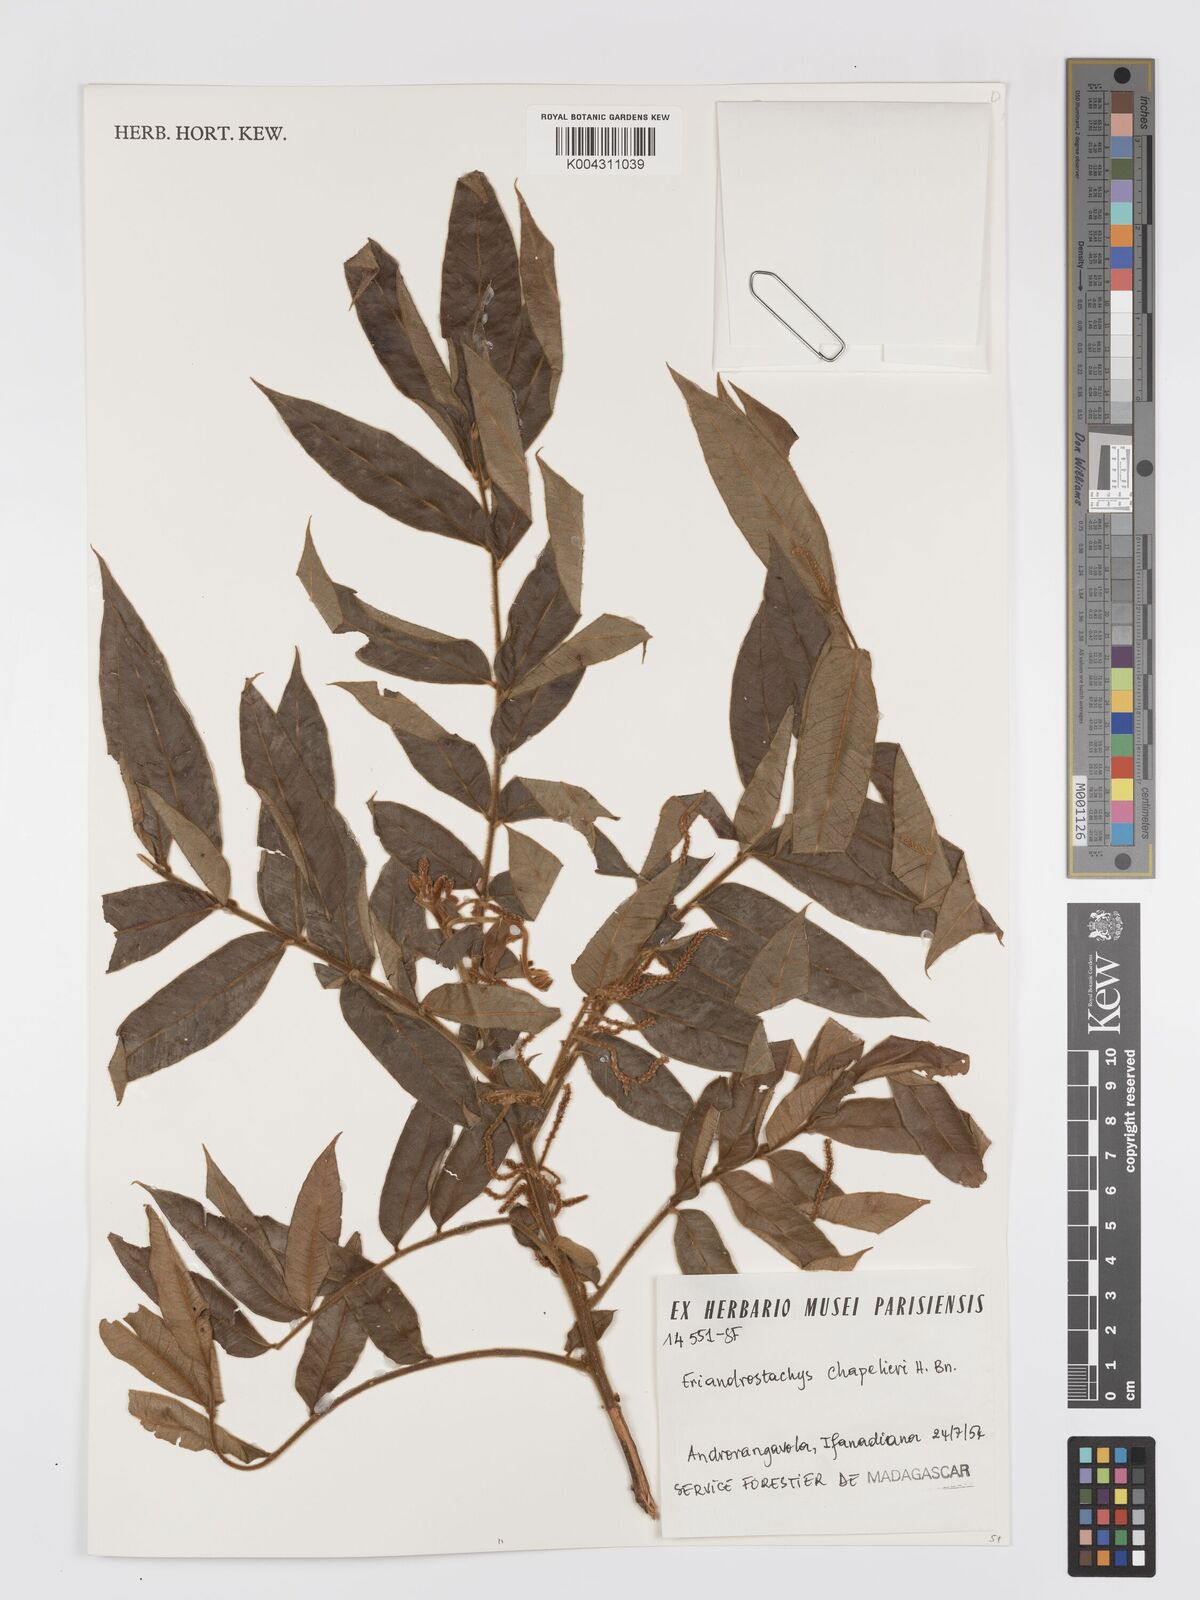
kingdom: Plantae
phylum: Tracheophyta
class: Magnoliopsida
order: Sapindales
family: Sapindaceae
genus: Macphersonia
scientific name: Macphersonia chapelieri
